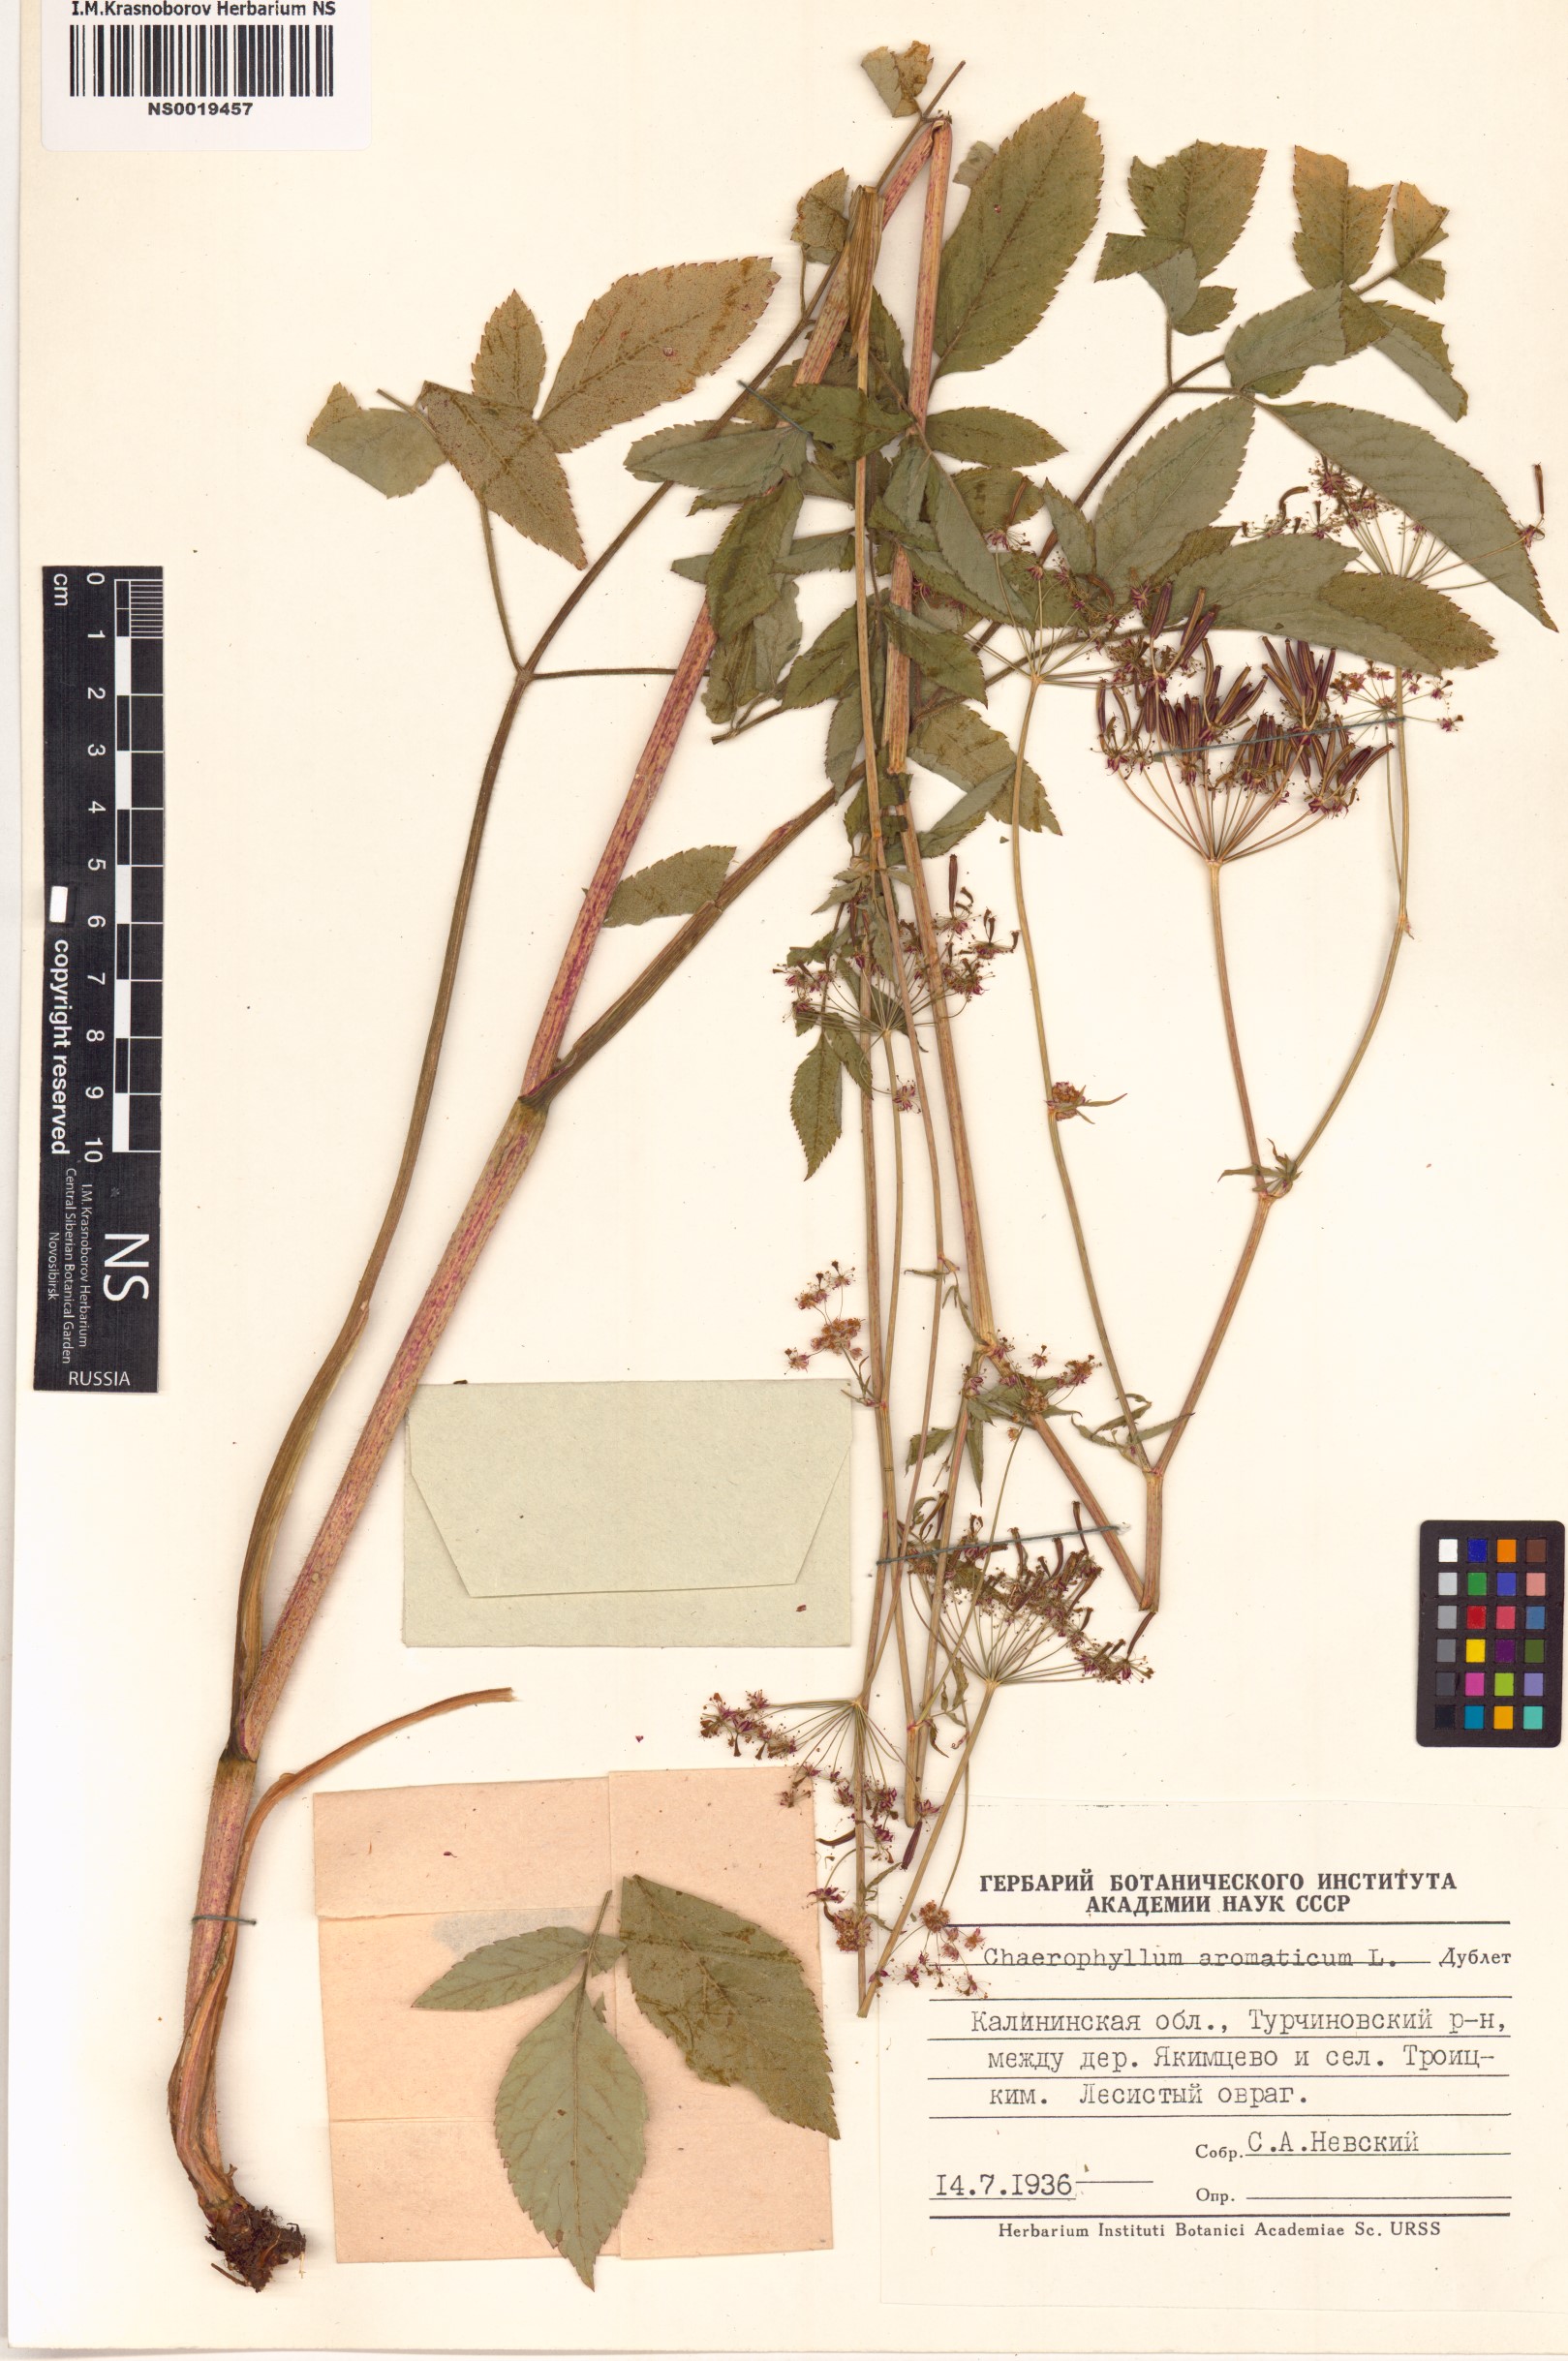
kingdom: Plantae
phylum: Tracheophyta
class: Magnoliopsida
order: Apiales
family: Apiaceae
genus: Chaerophyllum
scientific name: Chaerophyllum aromaticum
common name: Broadleaf chervil
